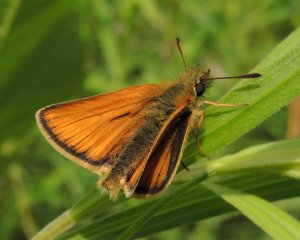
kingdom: Animalia
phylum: Arthropoda
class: Insecta
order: Lepidoptera
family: Hesperiidae
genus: Thymelicus
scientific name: Thymelicus lineola
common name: European Skipper
